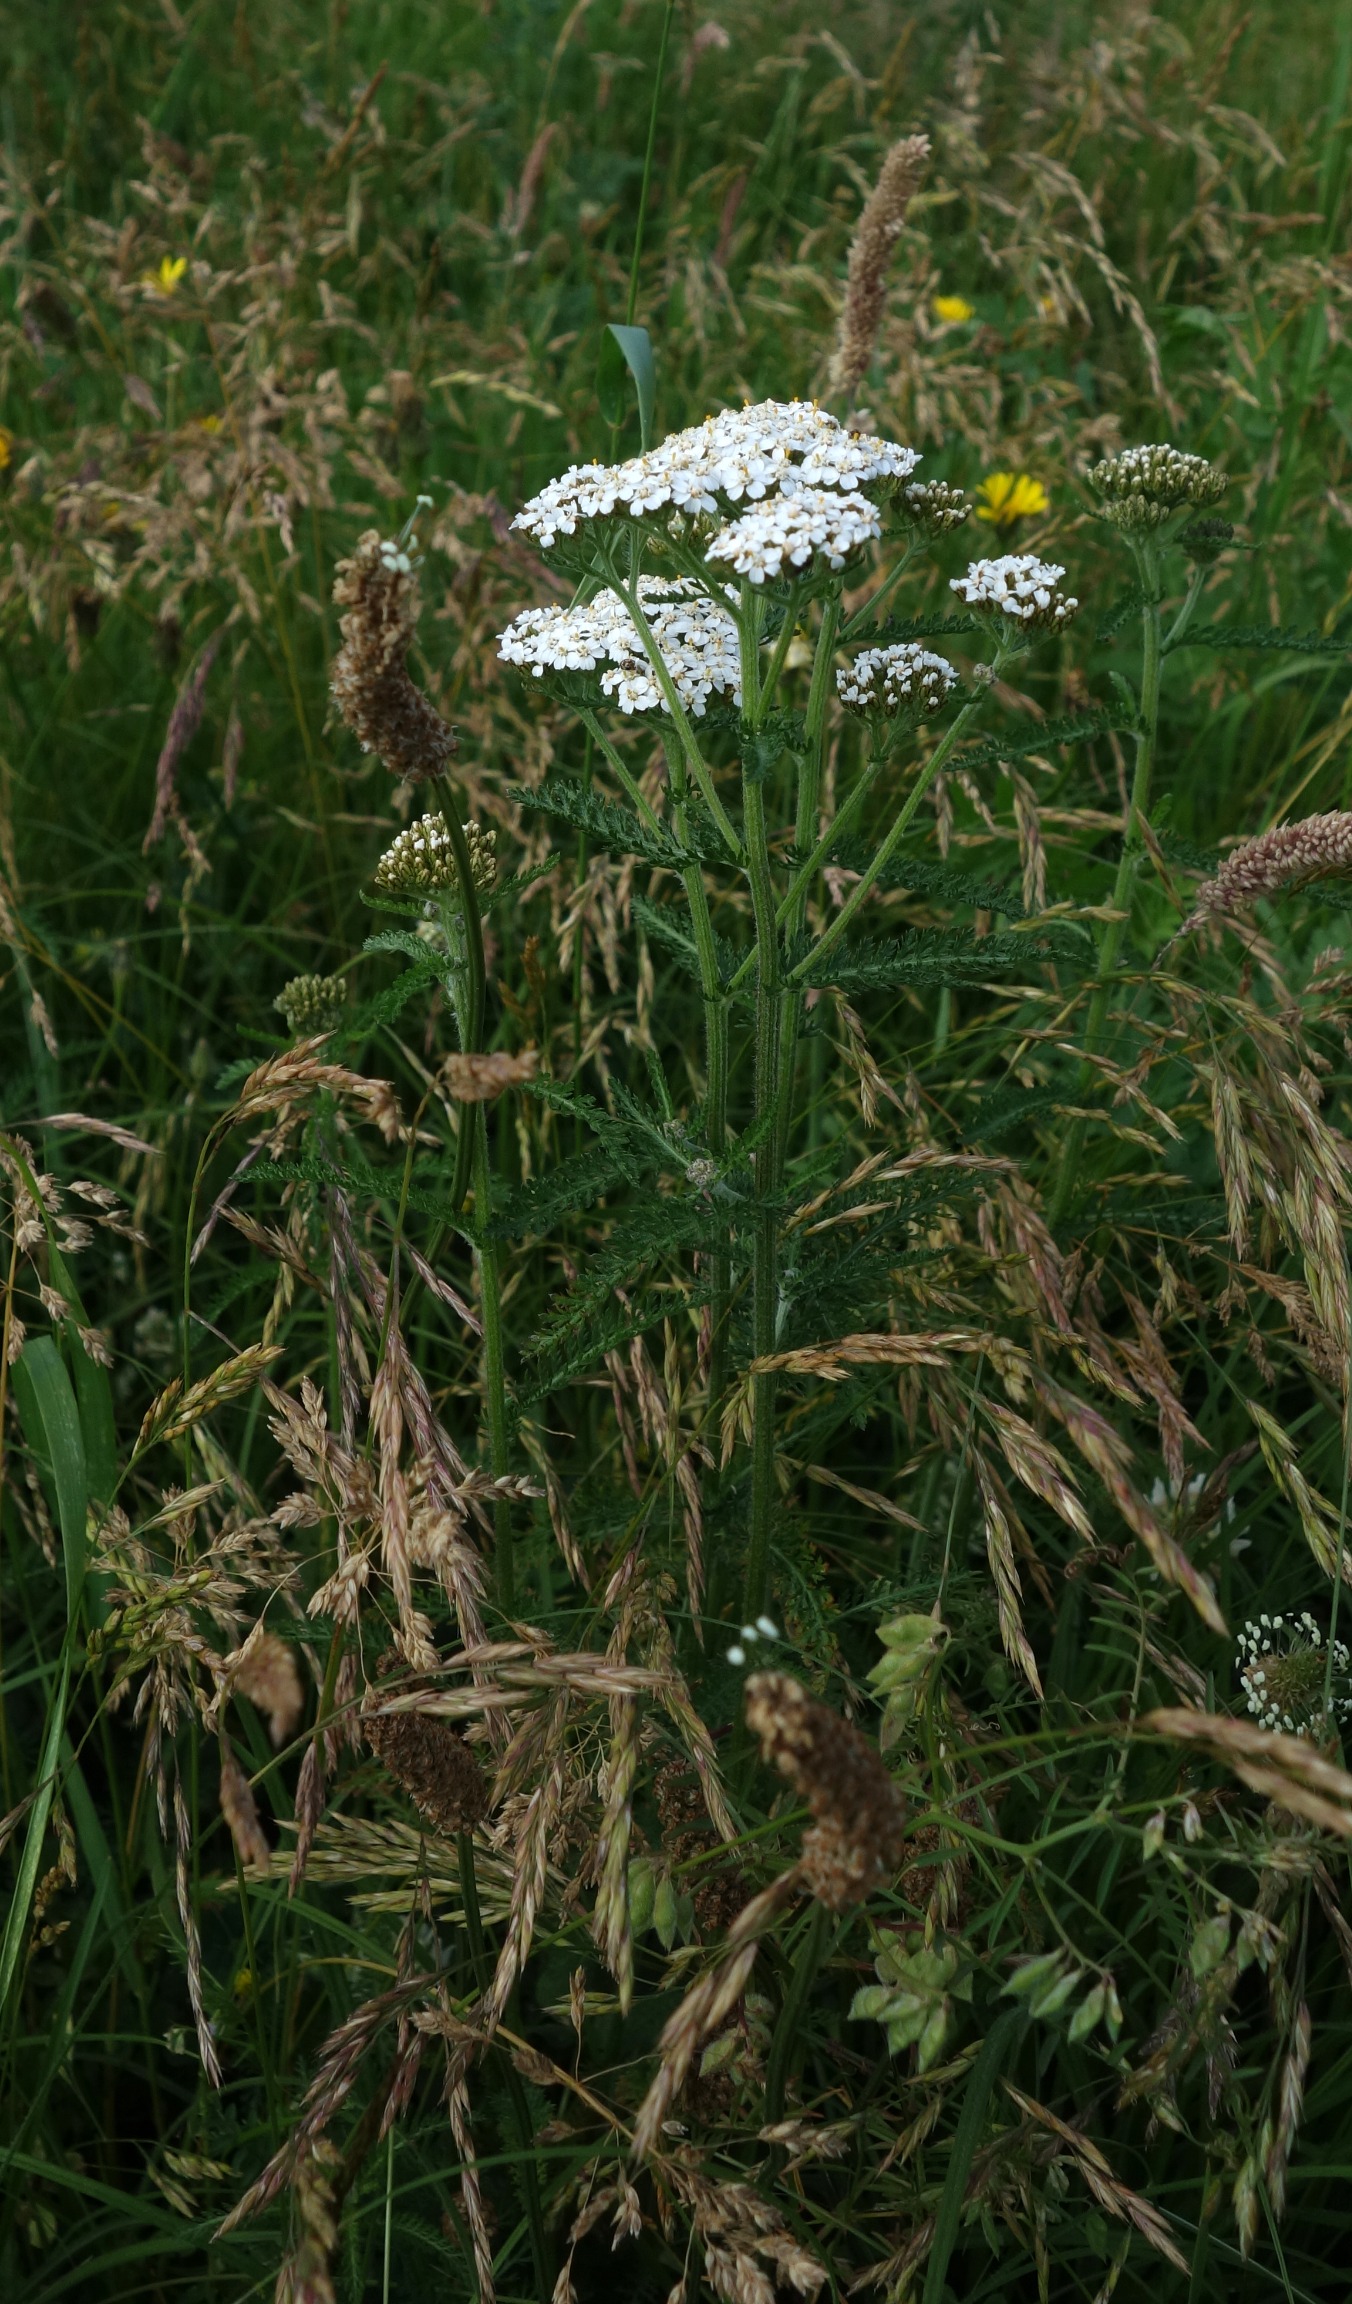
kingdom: Plantae
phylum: Tracheophyta
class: Magnoliopsida
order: Asterales
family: Asteraceae
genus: Achillea
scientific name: Achillea millefolium
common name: Almindelig røllike
